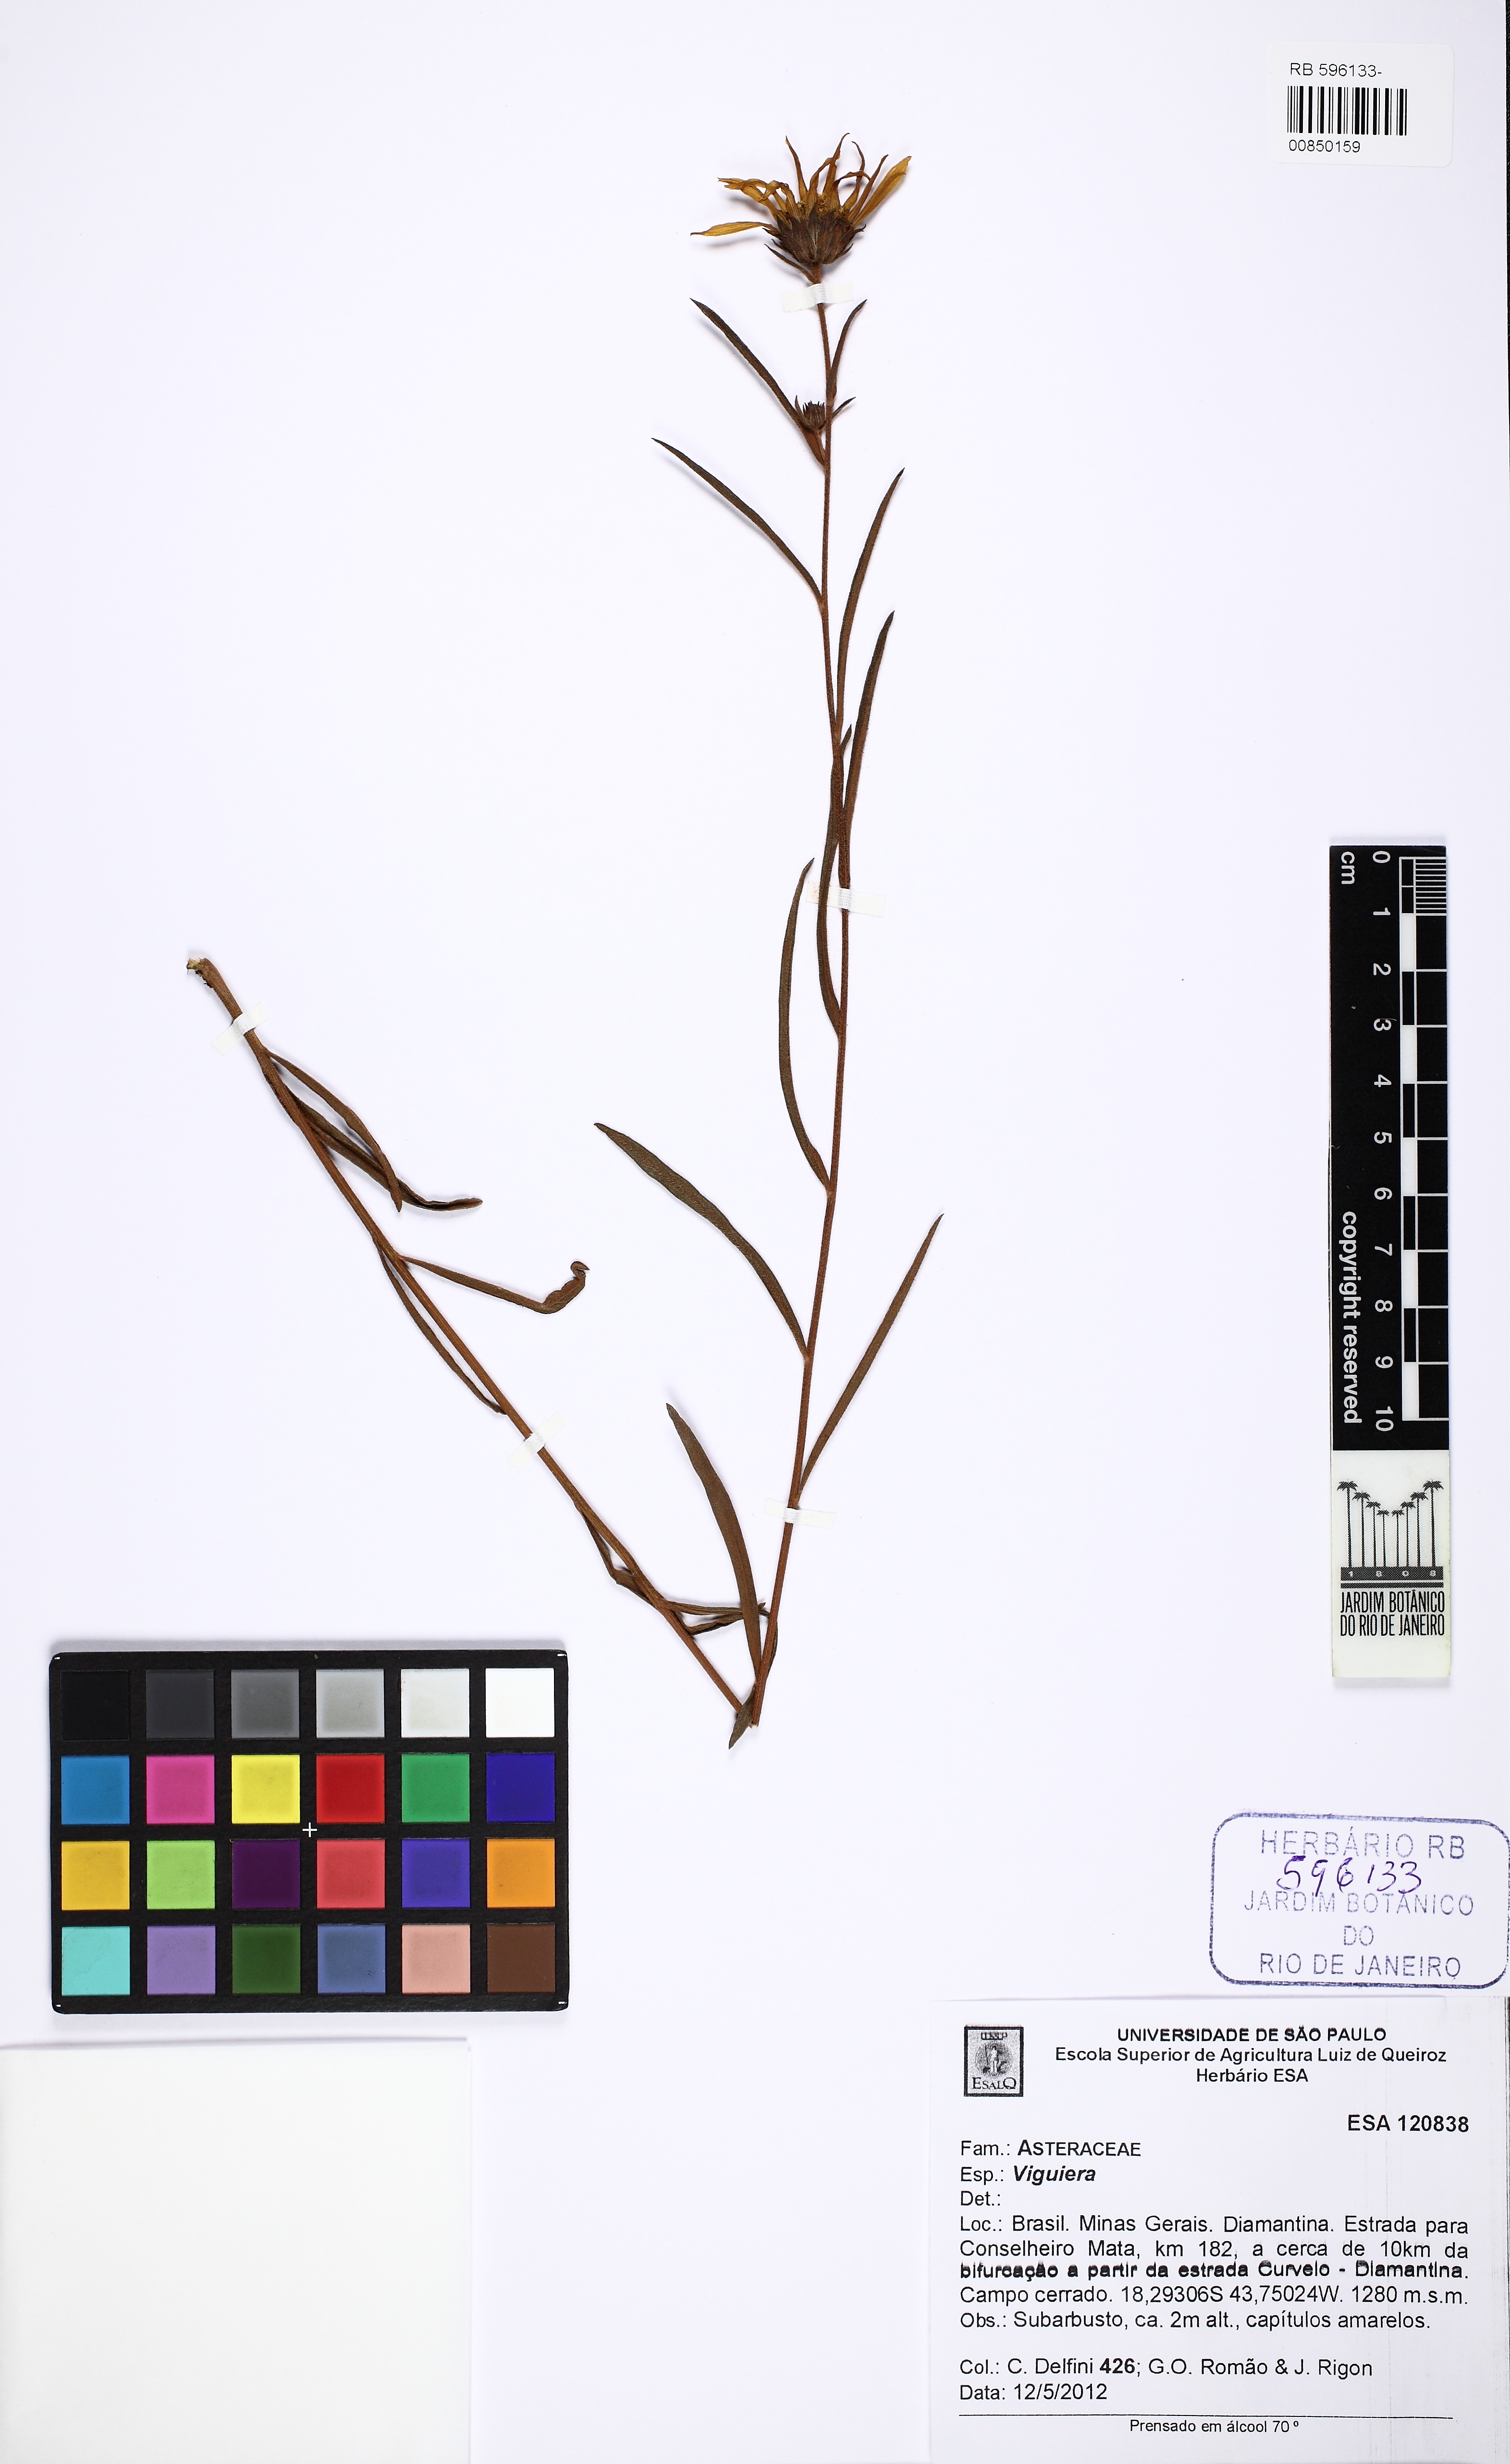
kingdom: Plantae
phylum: Tracheophyta
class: Magnoliopsida
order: Asterales
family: Asteraceae
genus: Viguiera
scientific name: Viguiera
